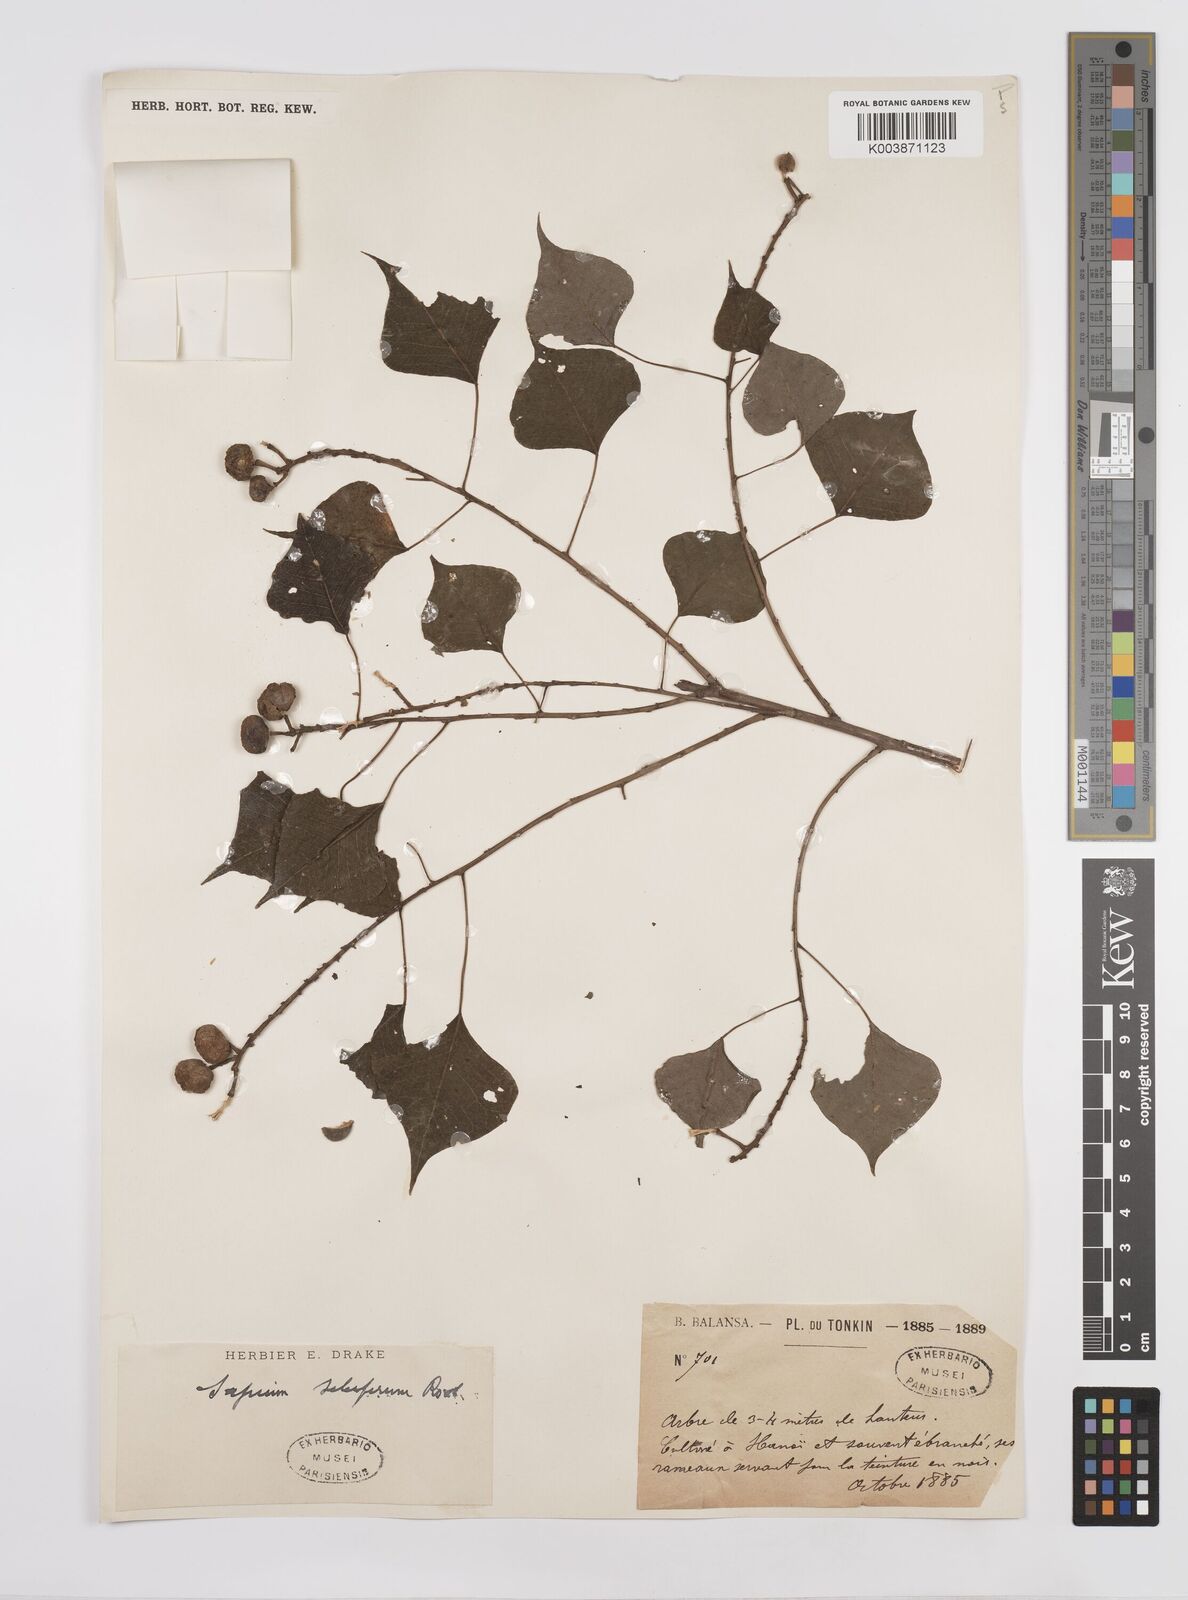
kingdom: Plantae
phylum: Tracheophyta
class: Magnoliopsida
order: Malpighiales
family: Euphorbiaceae
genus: Triadica
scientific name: Triadica sebifera
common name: Chinese tallow
